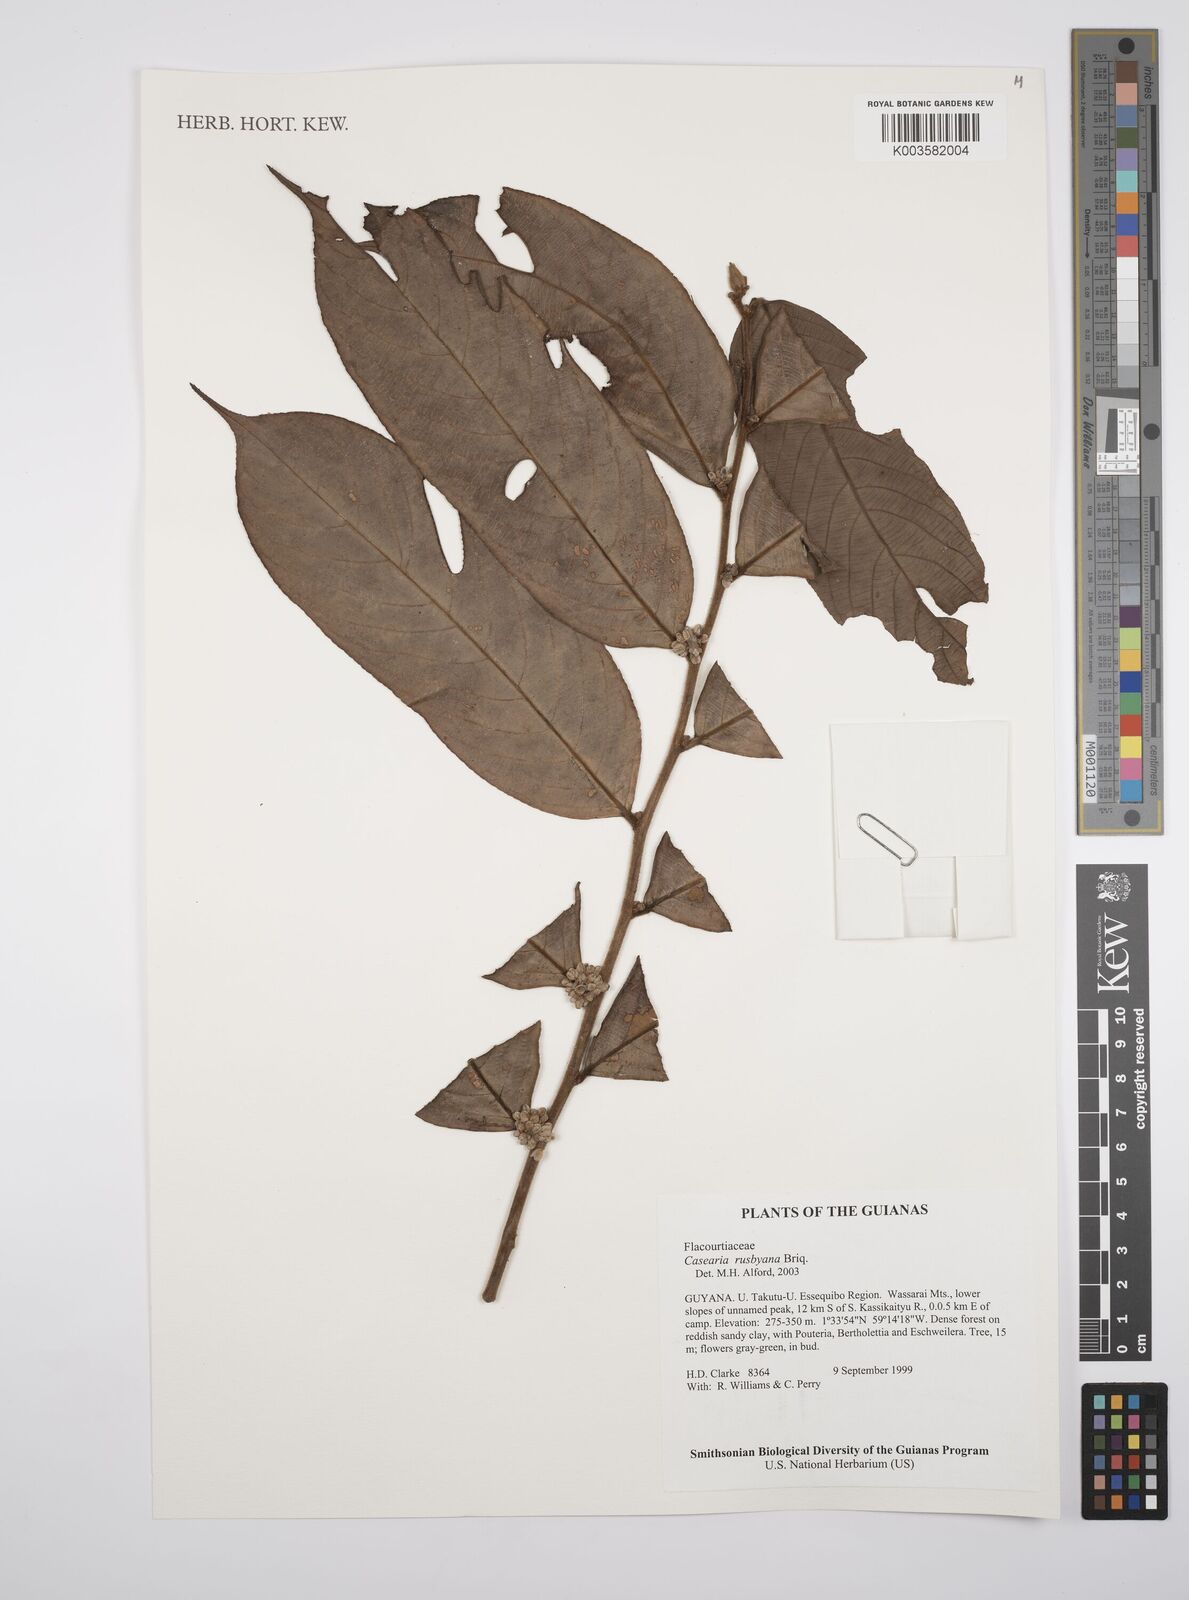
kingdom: Plantae
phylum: Tracheophyta
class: Magnoliopsida
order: Malpighiales
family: Salicaceae
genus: Casearia
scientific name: Casearia rusbyana
